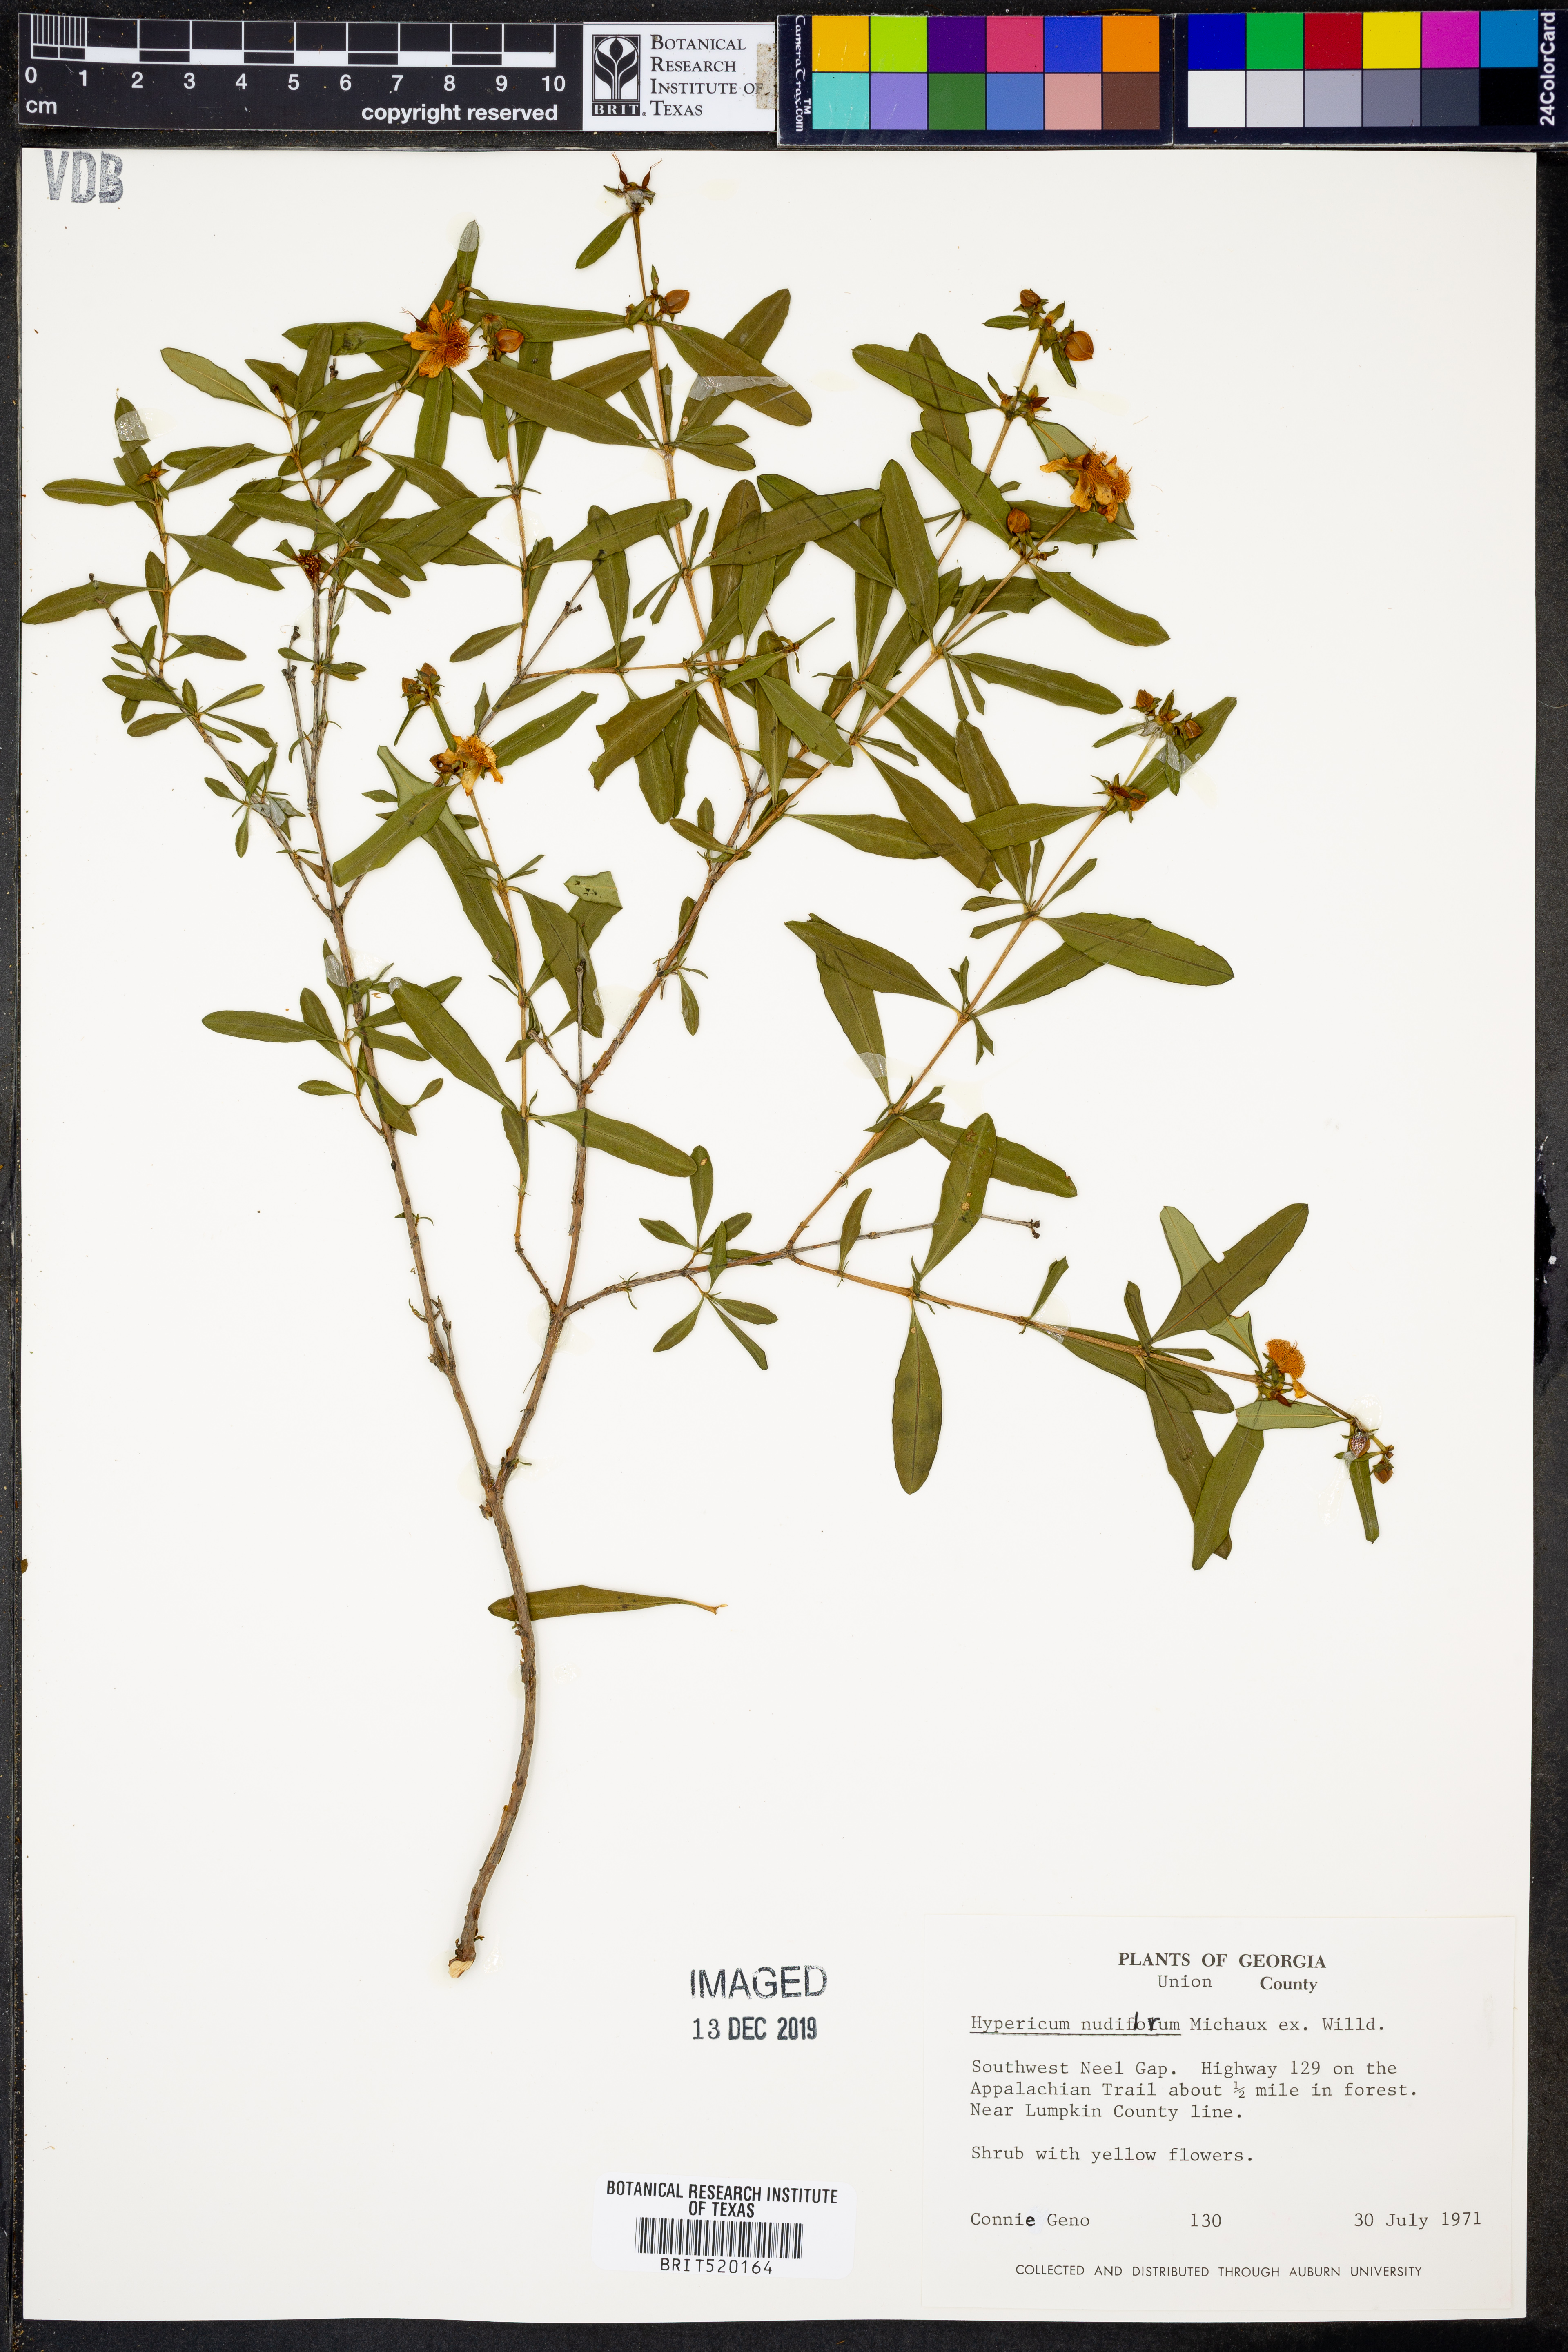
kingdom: Plantae
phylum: Tracheophyta
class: Magnoliopsida
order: Malpighiales
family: Hypericaceae
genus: Hypericum
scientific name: Hypericum nudiflorum
